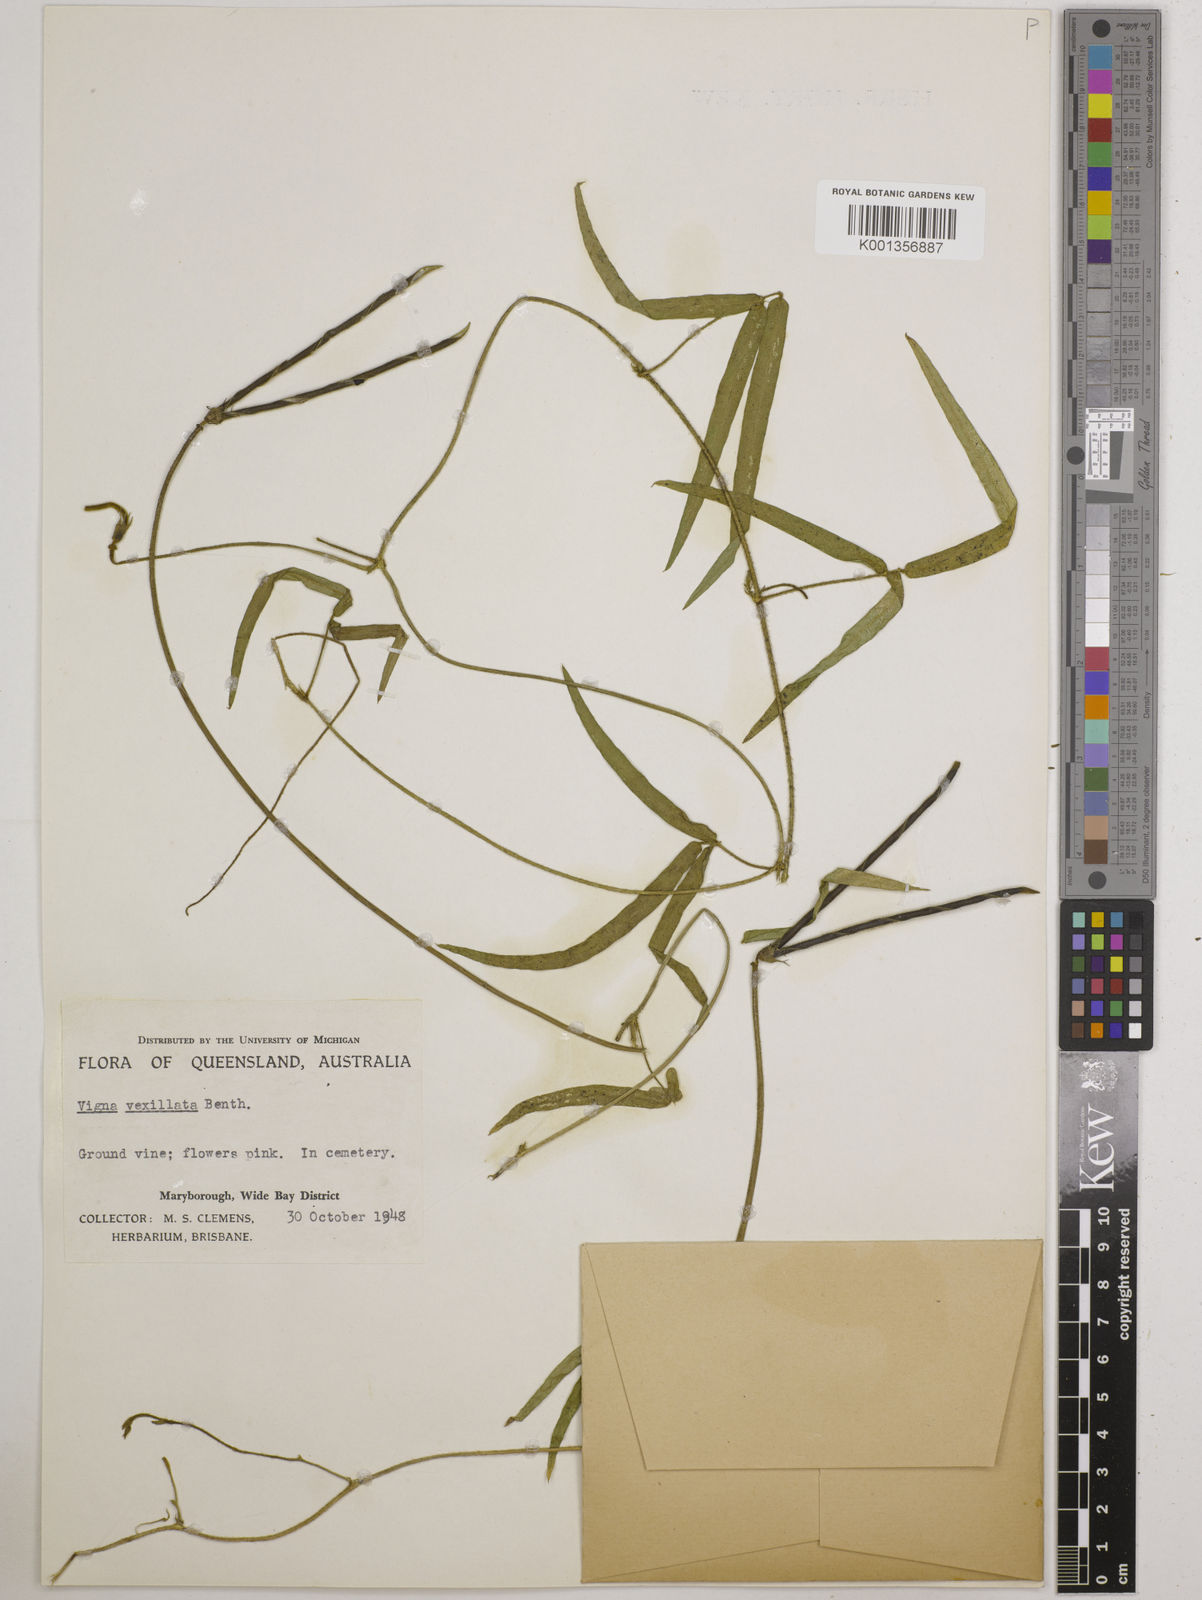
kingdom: Plantae
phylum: Tracheophyta
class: Magnoliopsida
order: Fabales
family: Fabaceae
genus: Vigna
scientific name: Vigna vexillata
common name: Zombi pea
